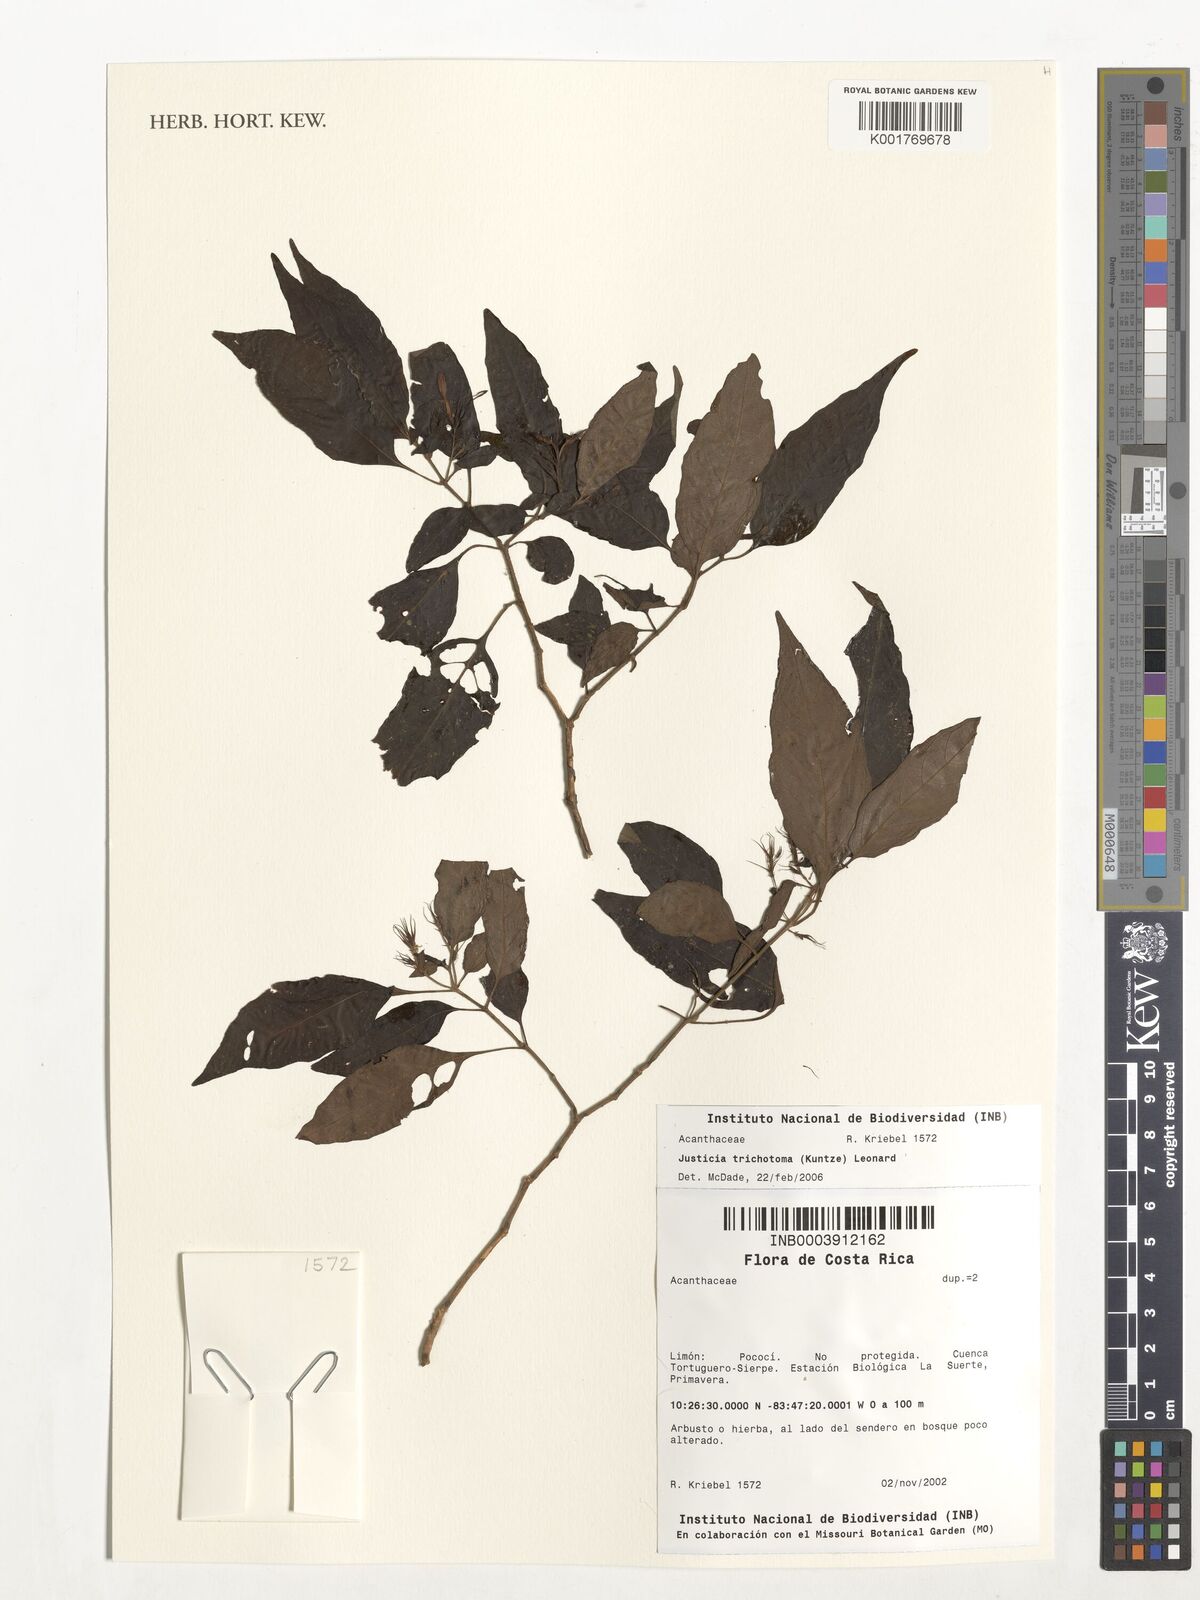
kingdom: Plantae
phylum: Tracheophyta
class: Magnoliopsida
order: Lamiales
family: Acanthaceae
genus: Justicia
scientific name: Justicia trichotoma
